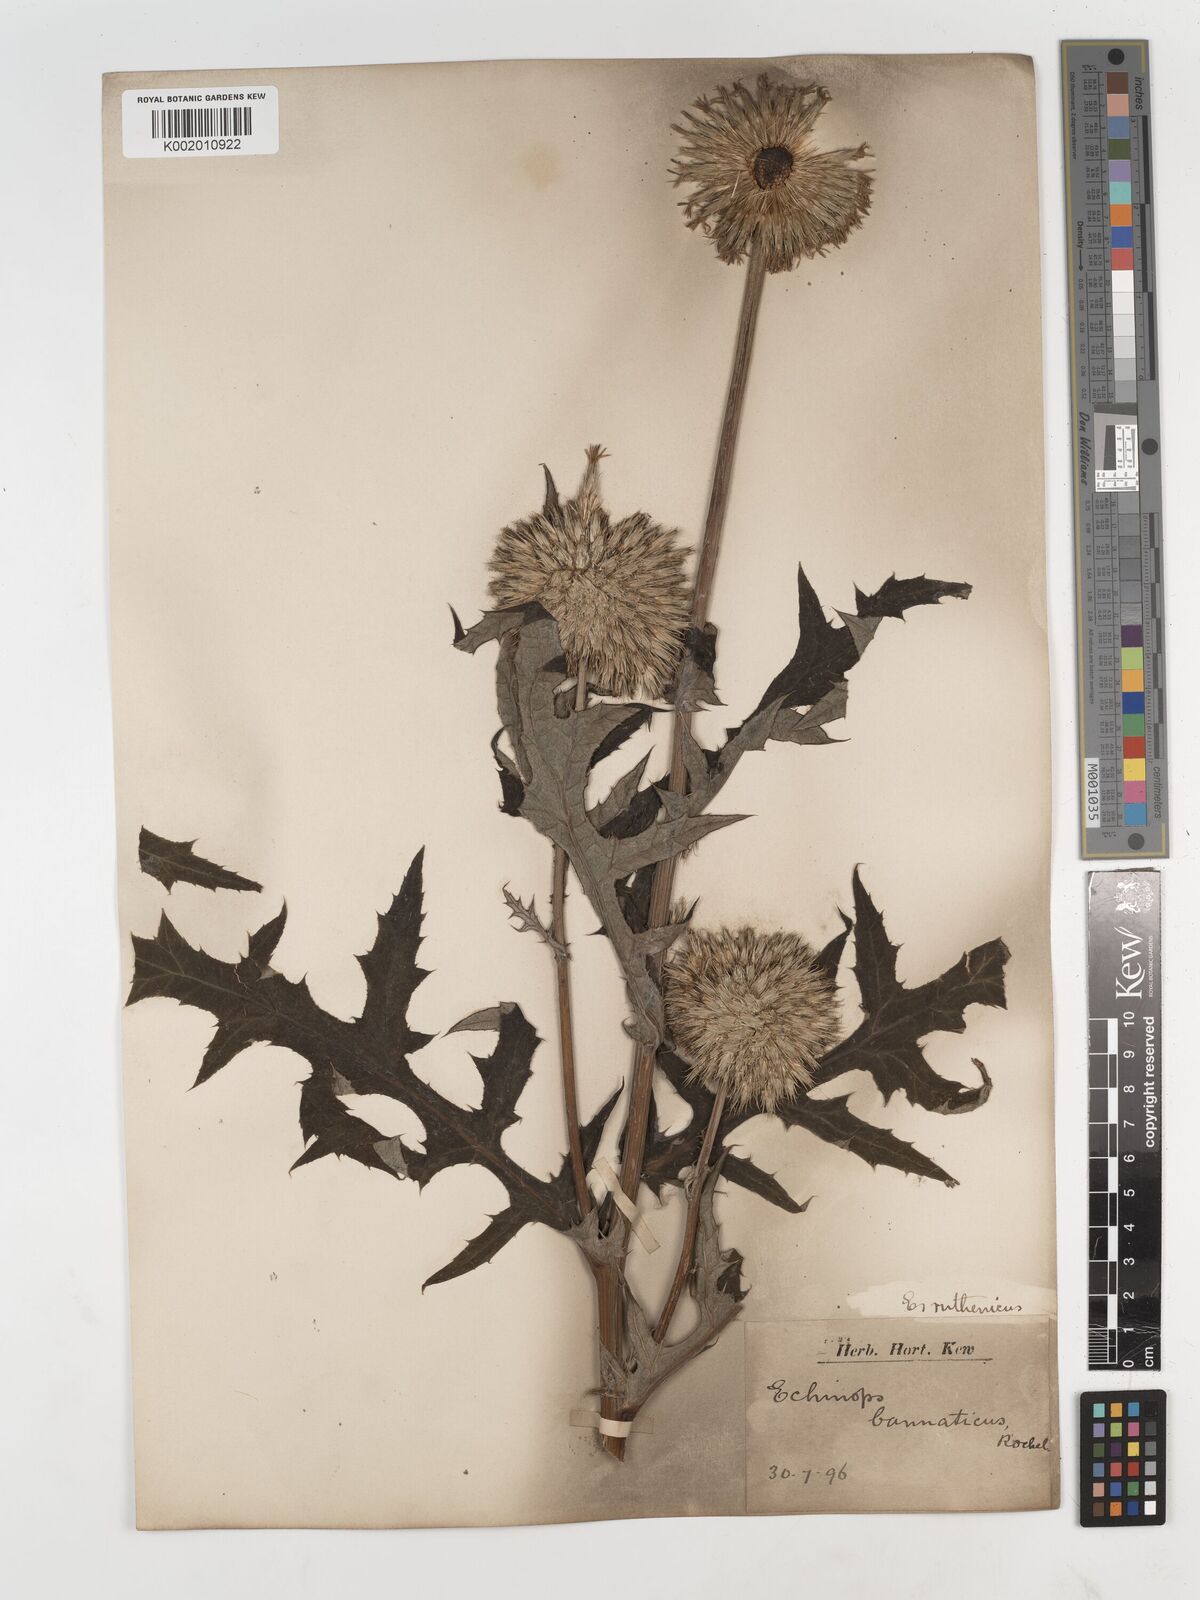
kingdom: Plantae
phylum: Tracheophyta
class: Magnoliopsida
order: Asterales
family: Asteraceae
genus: Echinops
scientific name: Echinops ritro
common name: Globe thistle
